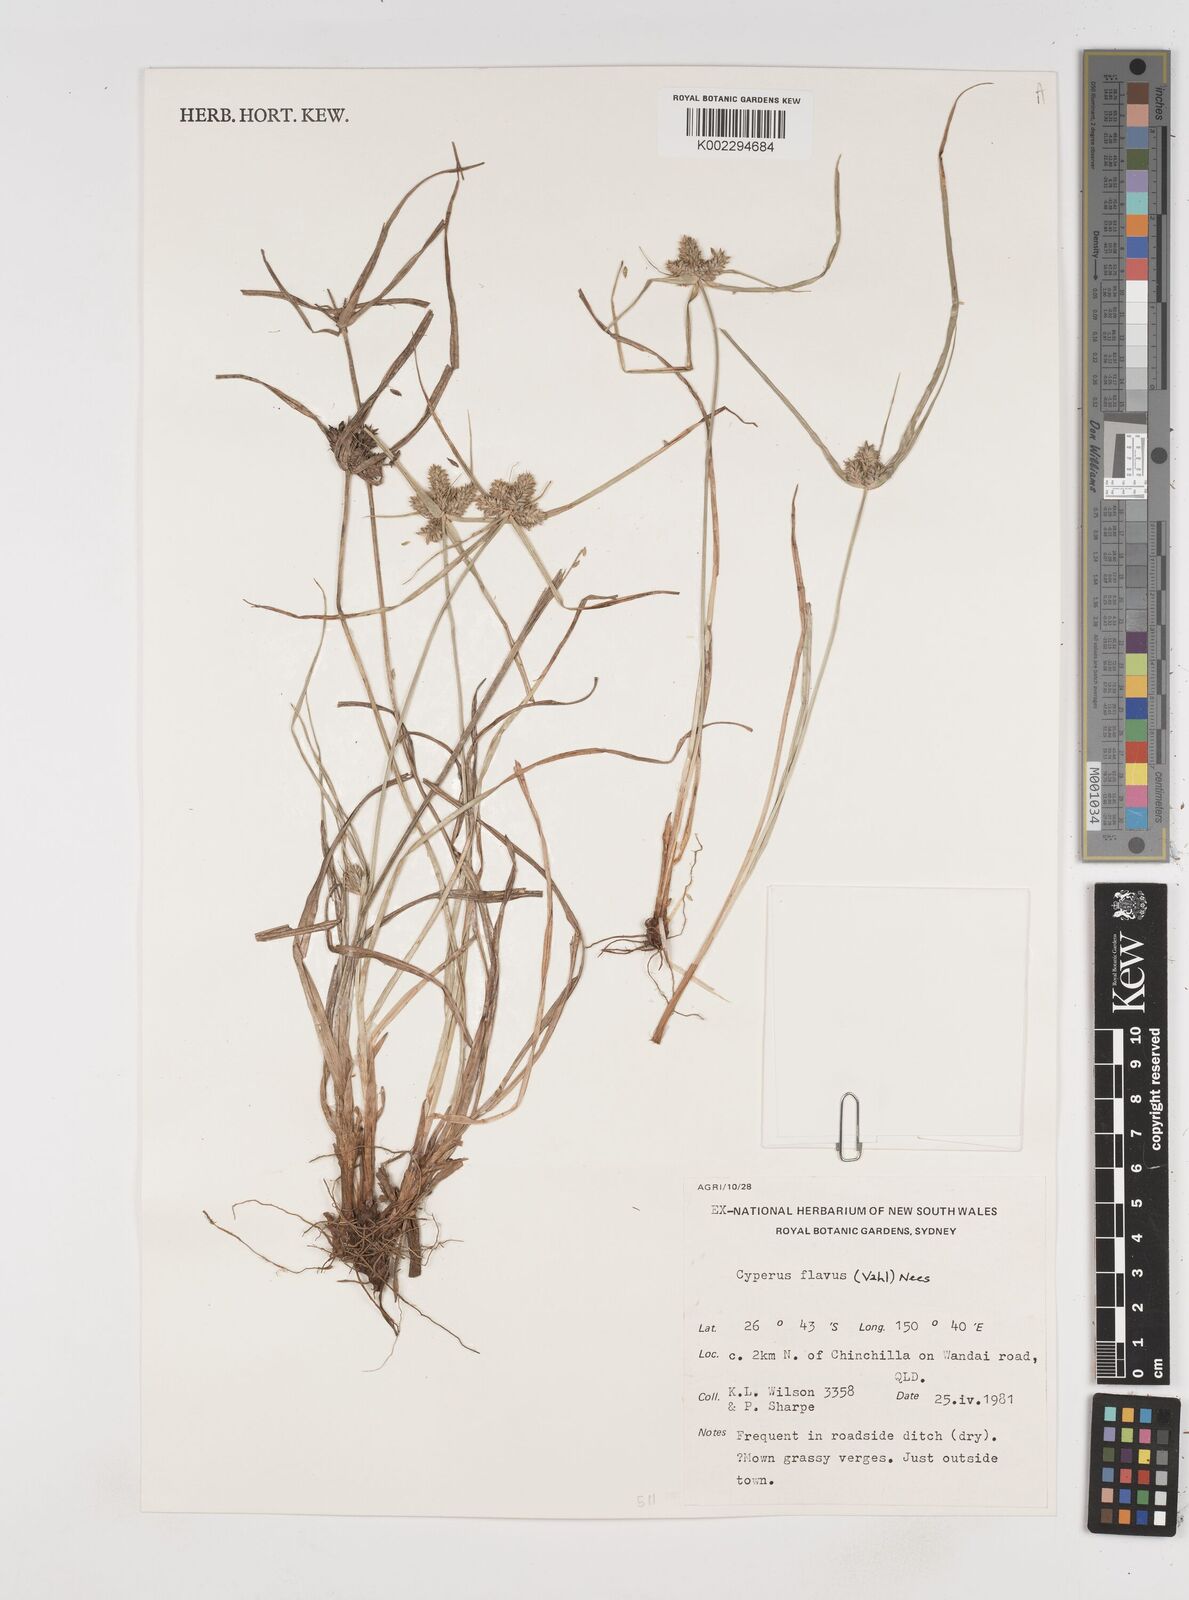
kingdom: Plantae
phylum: Tracheophyta
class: Liliopsida
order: Poales
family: Cyperaceae
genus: Cyperus
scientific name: Cyperus aggregatus
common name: Inflatedscale flatsedge
